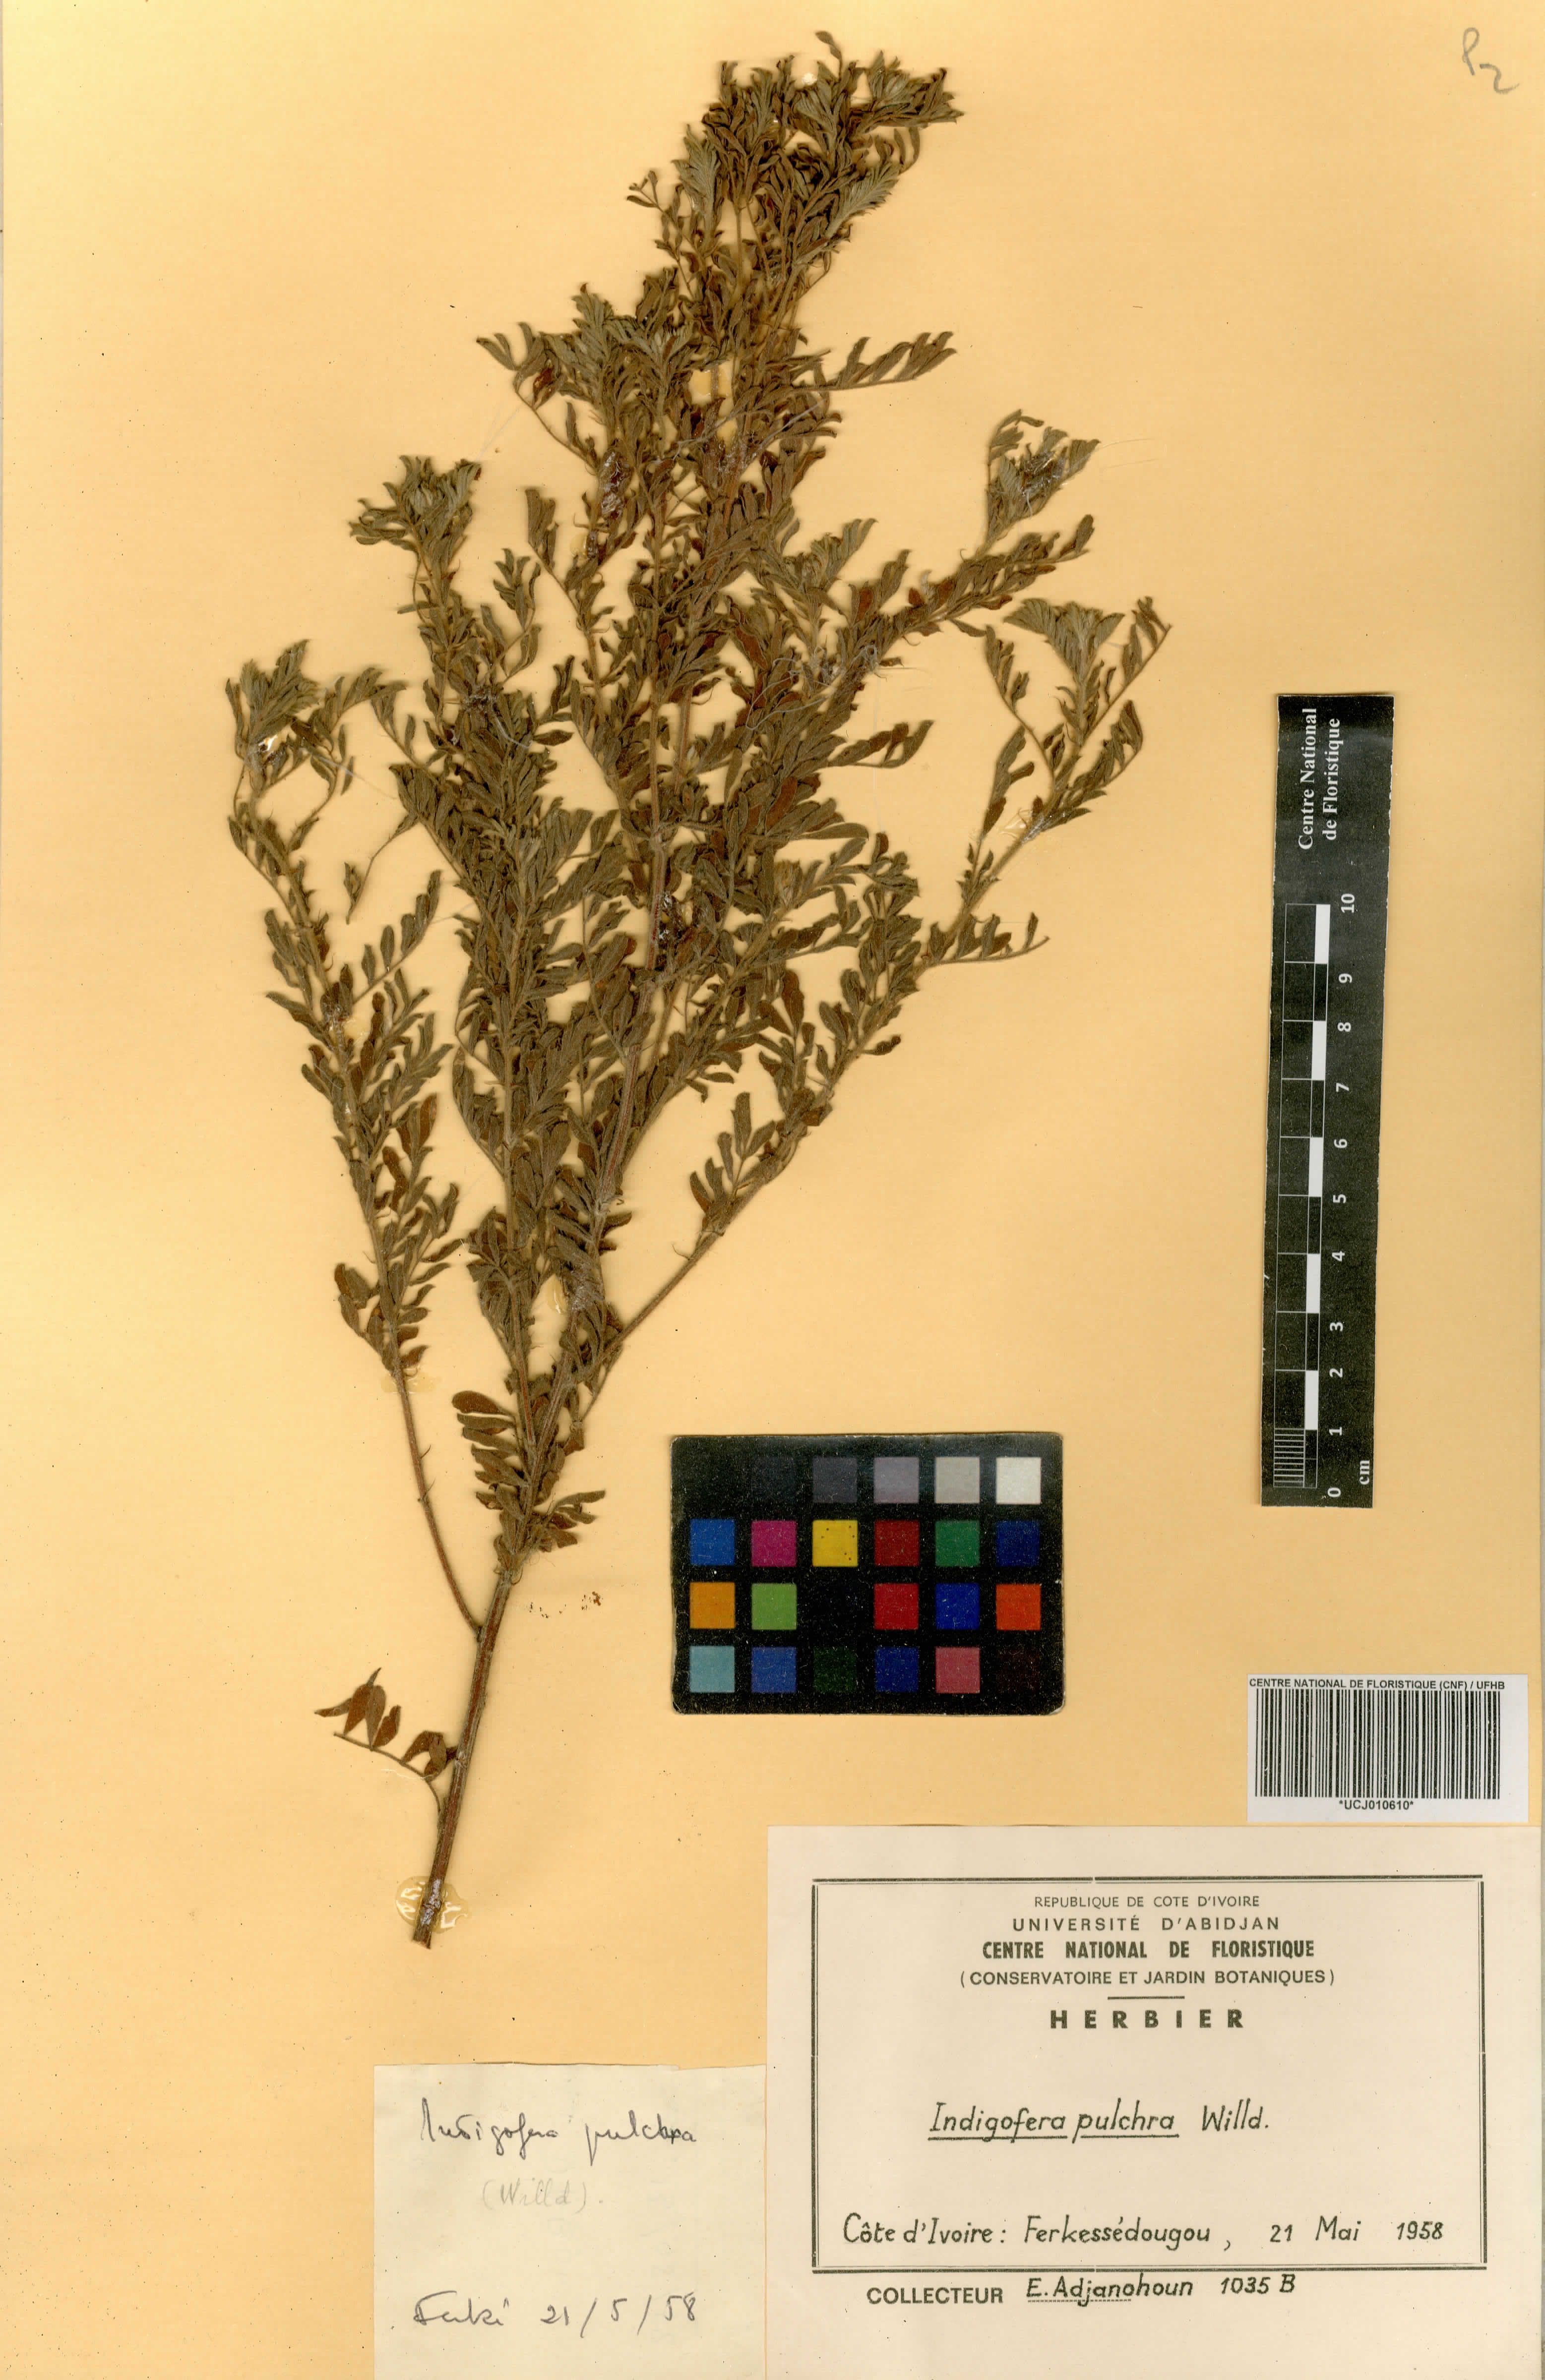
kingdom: Plantae
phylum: Tracheophyta
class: Magnoliopsida
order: Fabales
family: Fabaceae
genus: Indigofera
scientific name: Indigofera pulchra
